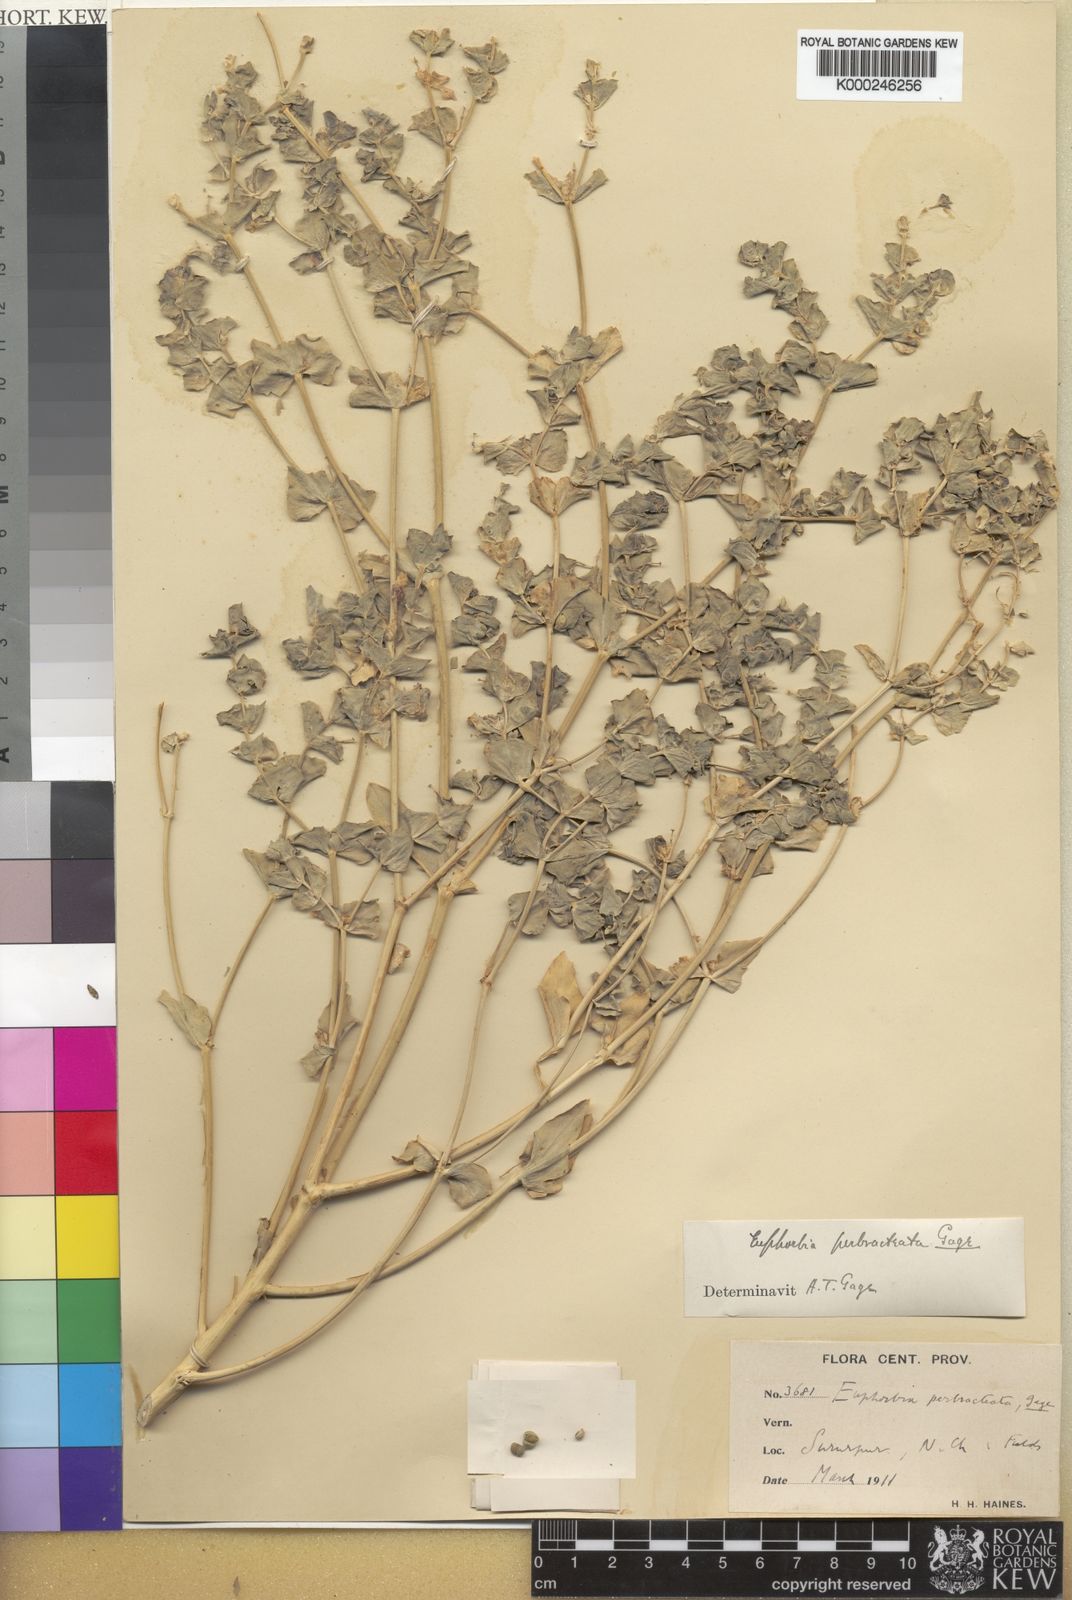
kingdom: Plantae
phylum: Tracheophyta
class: Magnoliopsida
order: Malpighiales
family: Euphorbiaceae
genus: Euphorbia
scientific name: Euphorbia perbracteata
